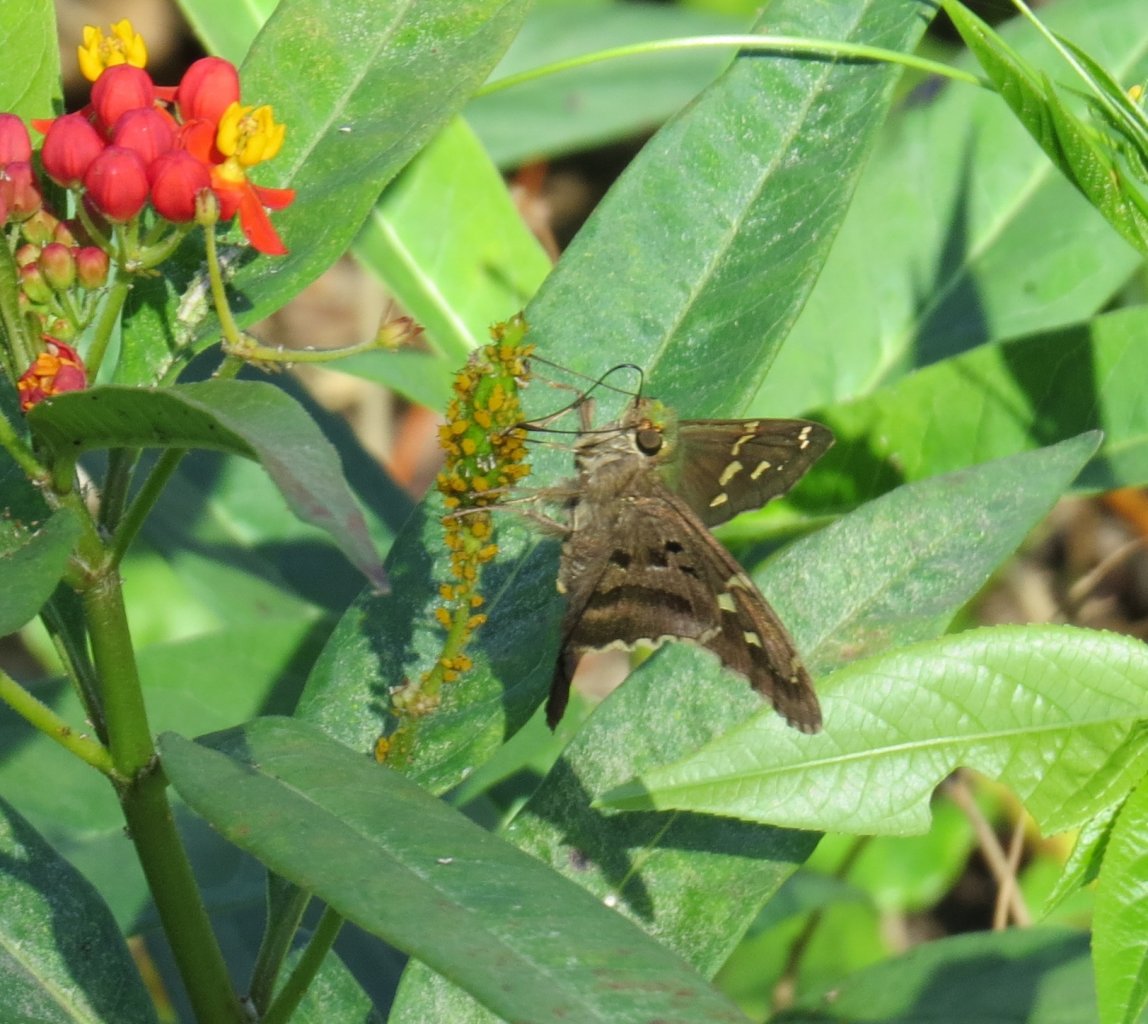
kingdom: Animalia
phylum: Arthropoda
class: Insecta
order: Lepidoptera
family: Hesperiidae
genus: Urbanus
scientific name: Urbanus proteus
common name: Long-tailed Skipper
